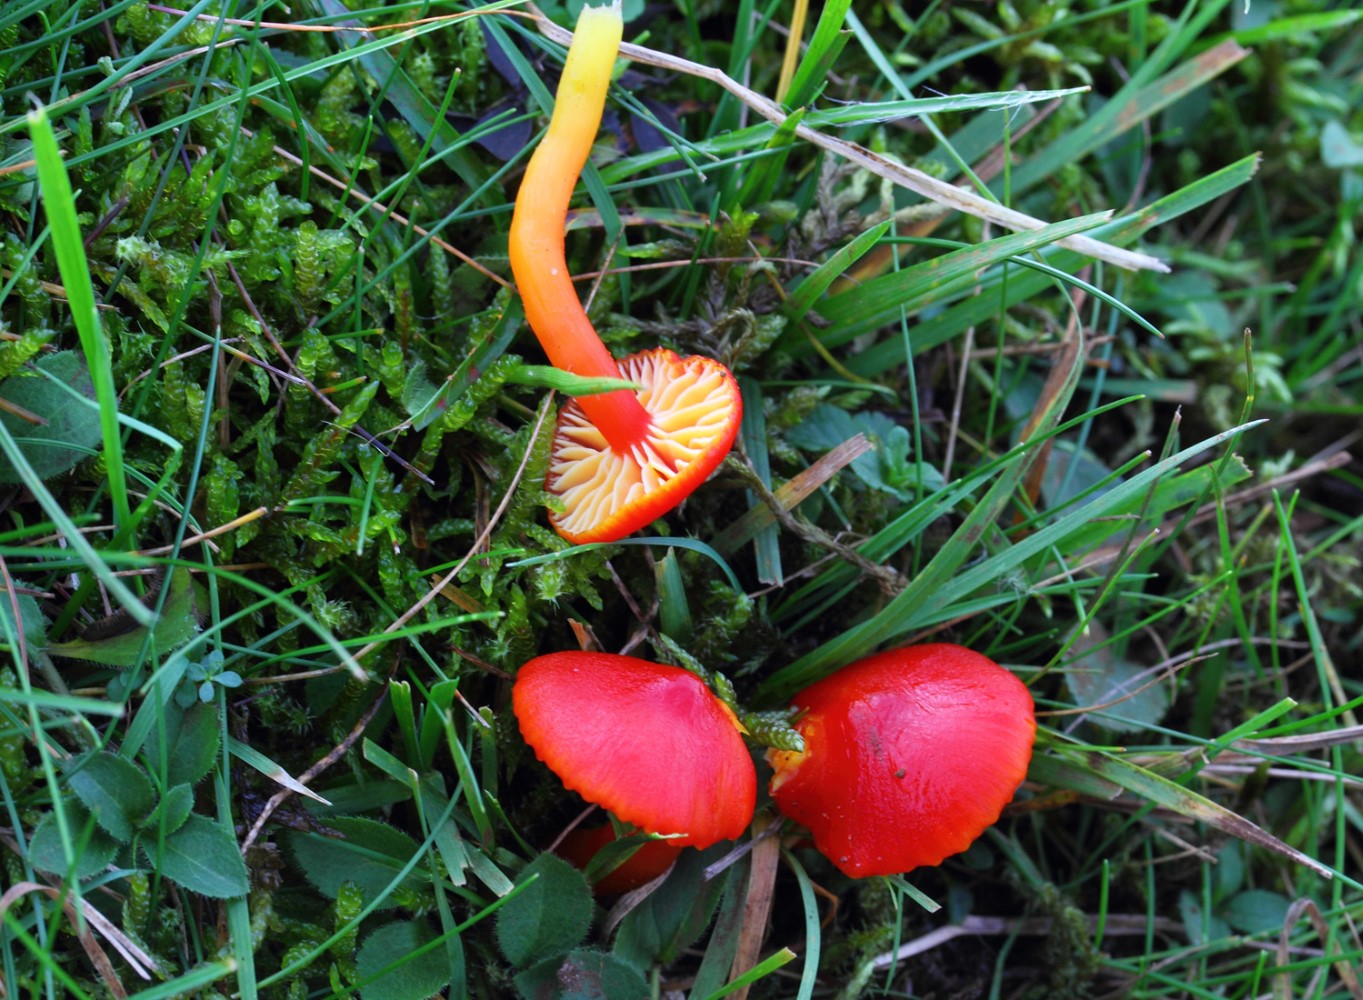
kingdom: Fungi
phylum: Basidiomycota
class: Agaricomycetes
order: Agaricales
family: Hygrophoraceae
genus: Hygrocybe
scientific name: Hygrocybe coccinea
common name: cinnober-vokshat
